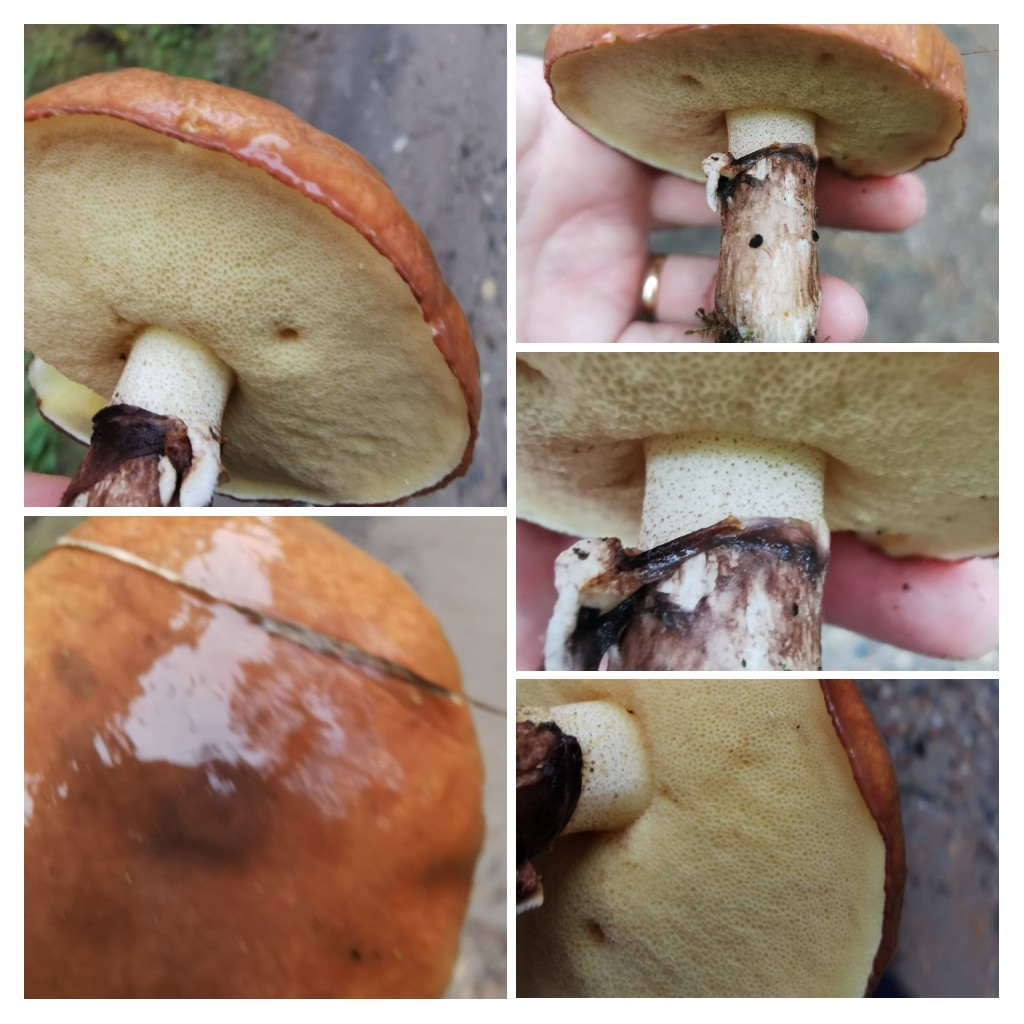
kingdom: Fungi
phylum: Basidiomycota
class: Agaricomycetes
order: Boletales
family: Suillaceae
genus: Suillus
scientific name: Suillus luteus
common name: brungul slimrørhat
